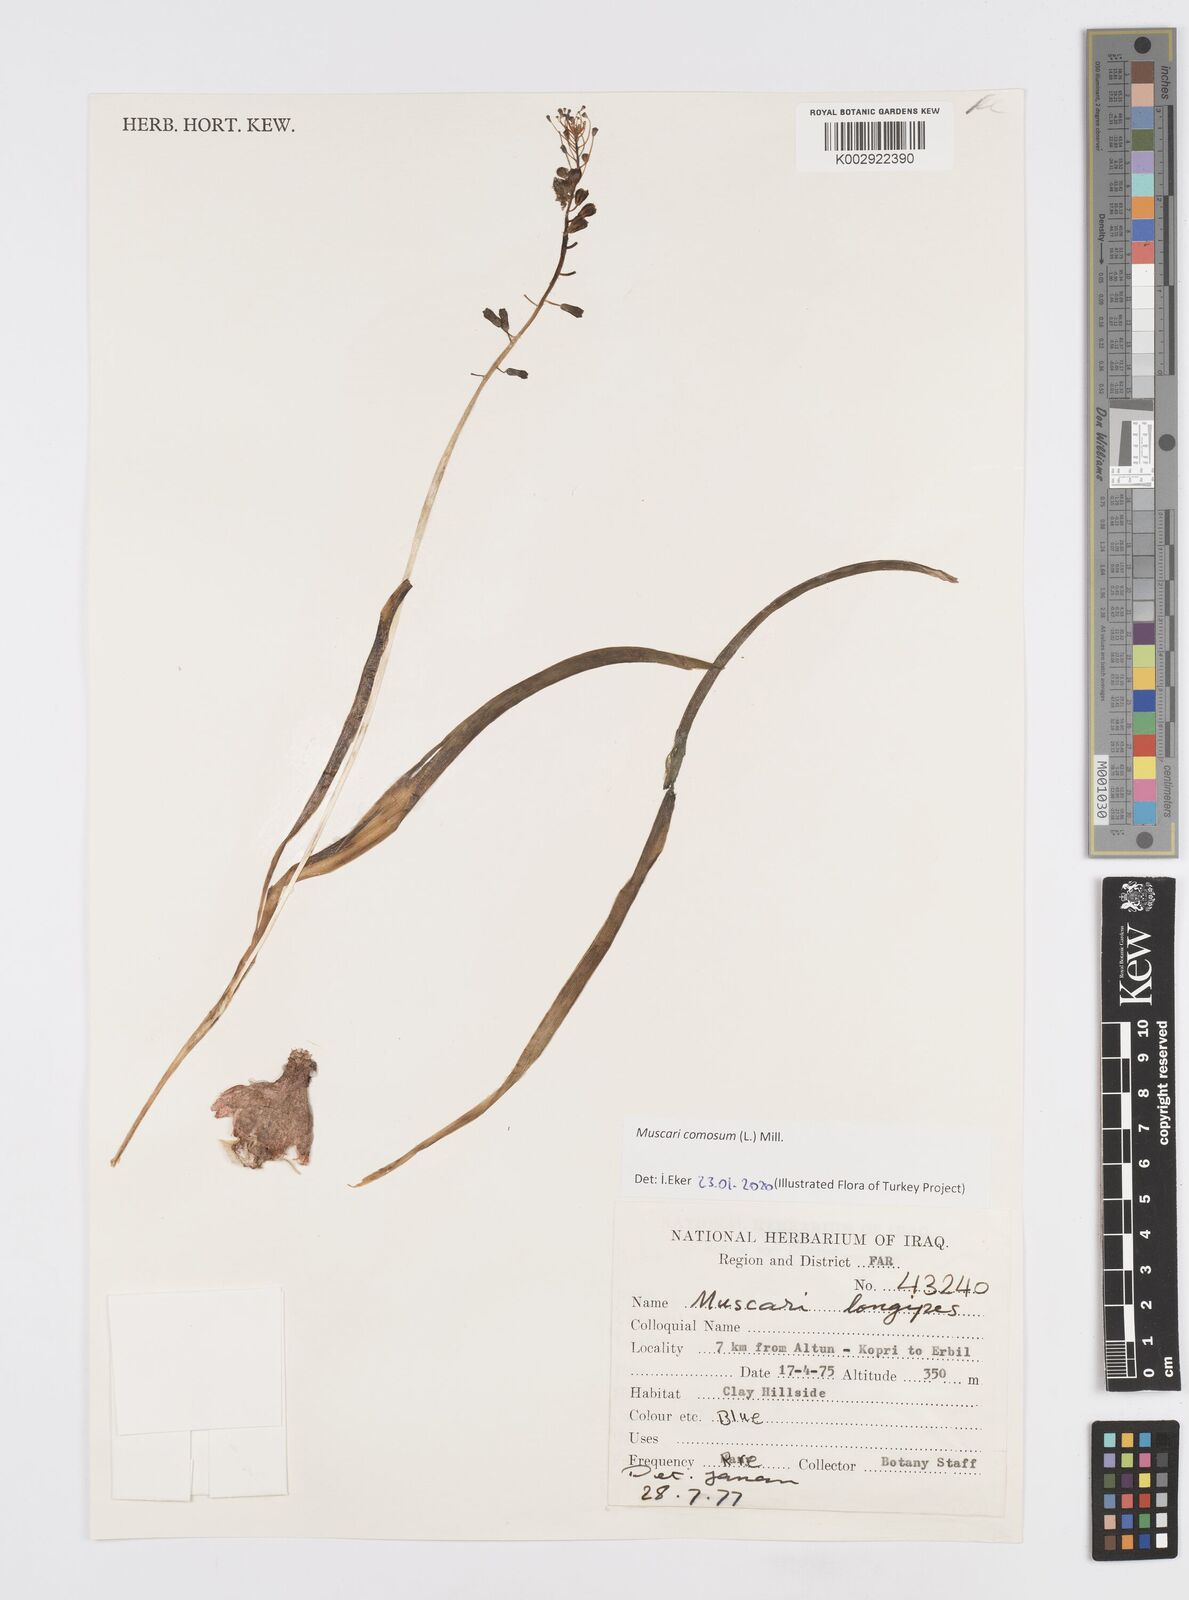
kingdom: Plantae
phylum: Tracheophyta
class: Liliopsida
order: Asparagales
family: Asparagaceae
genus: Muscari
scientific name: Muscari longipes
